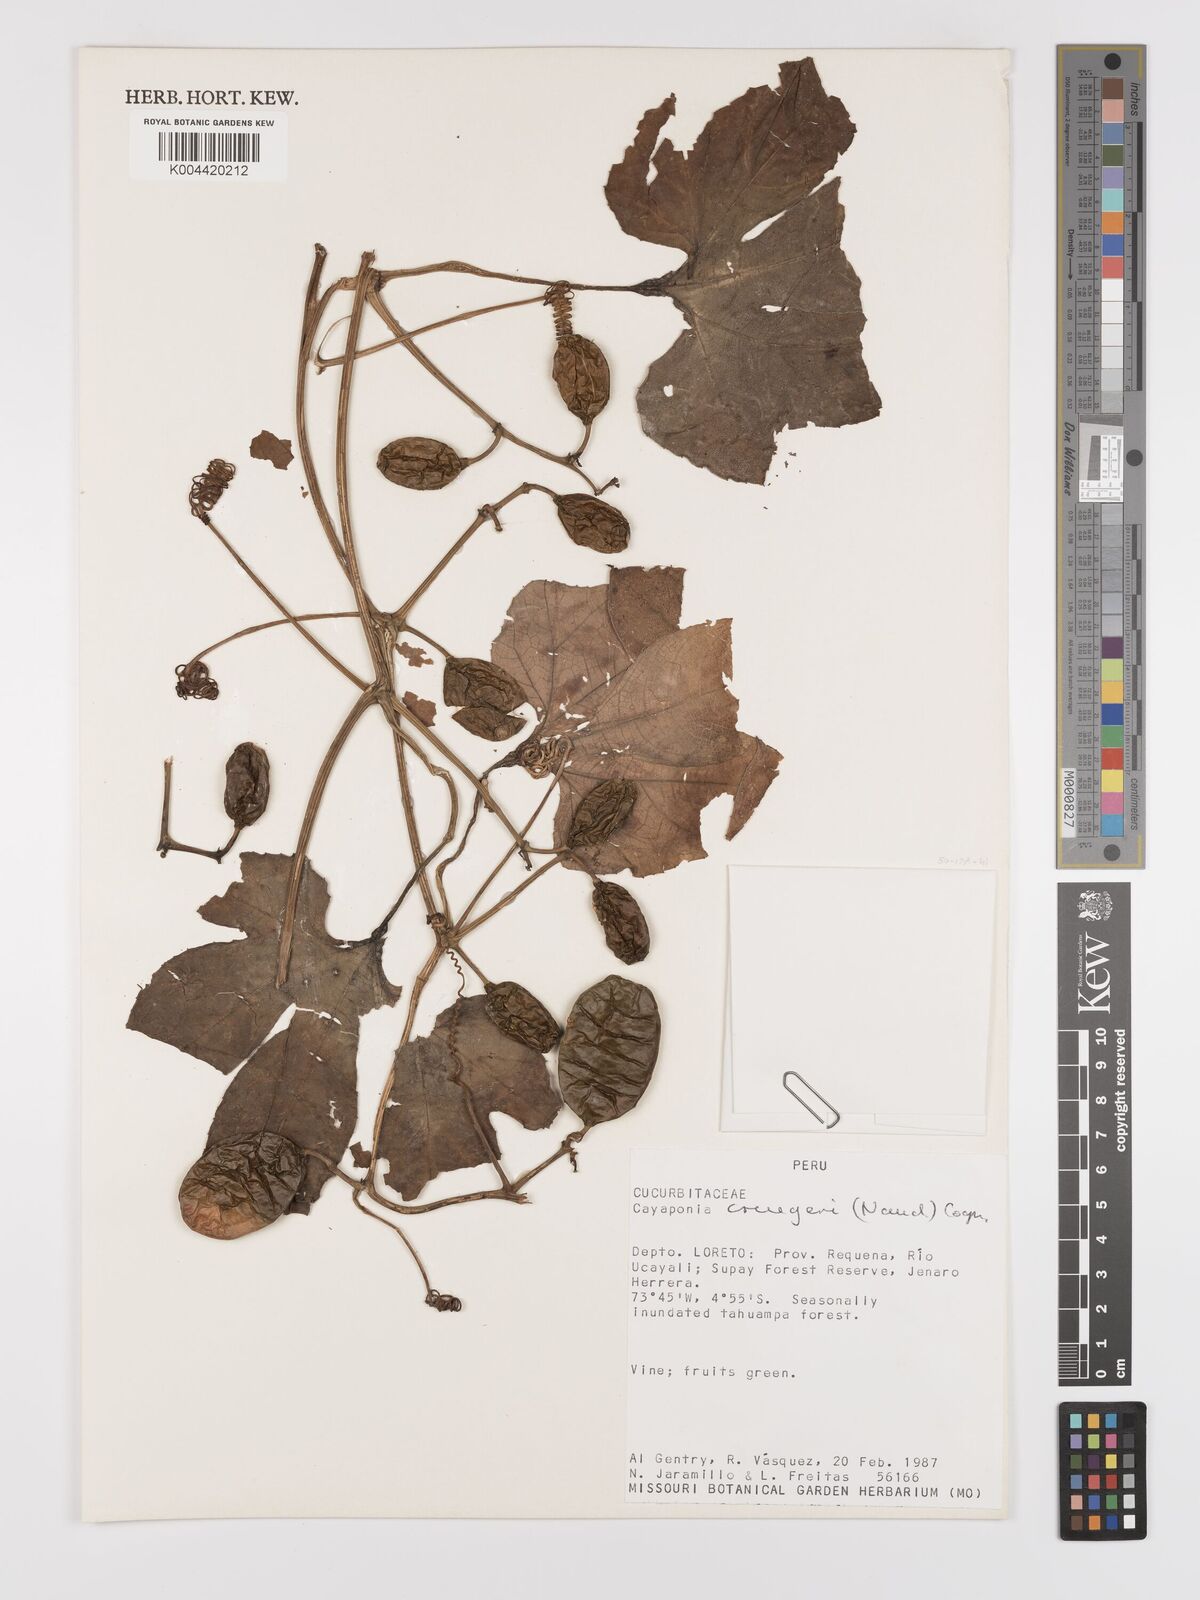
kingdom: Plantae
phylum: Tracheophyta
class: Magnoliopsida
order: Cucurbitales
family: Cucurbitaceae
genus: Cayaponia
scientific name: Cayaponia cruegeri
